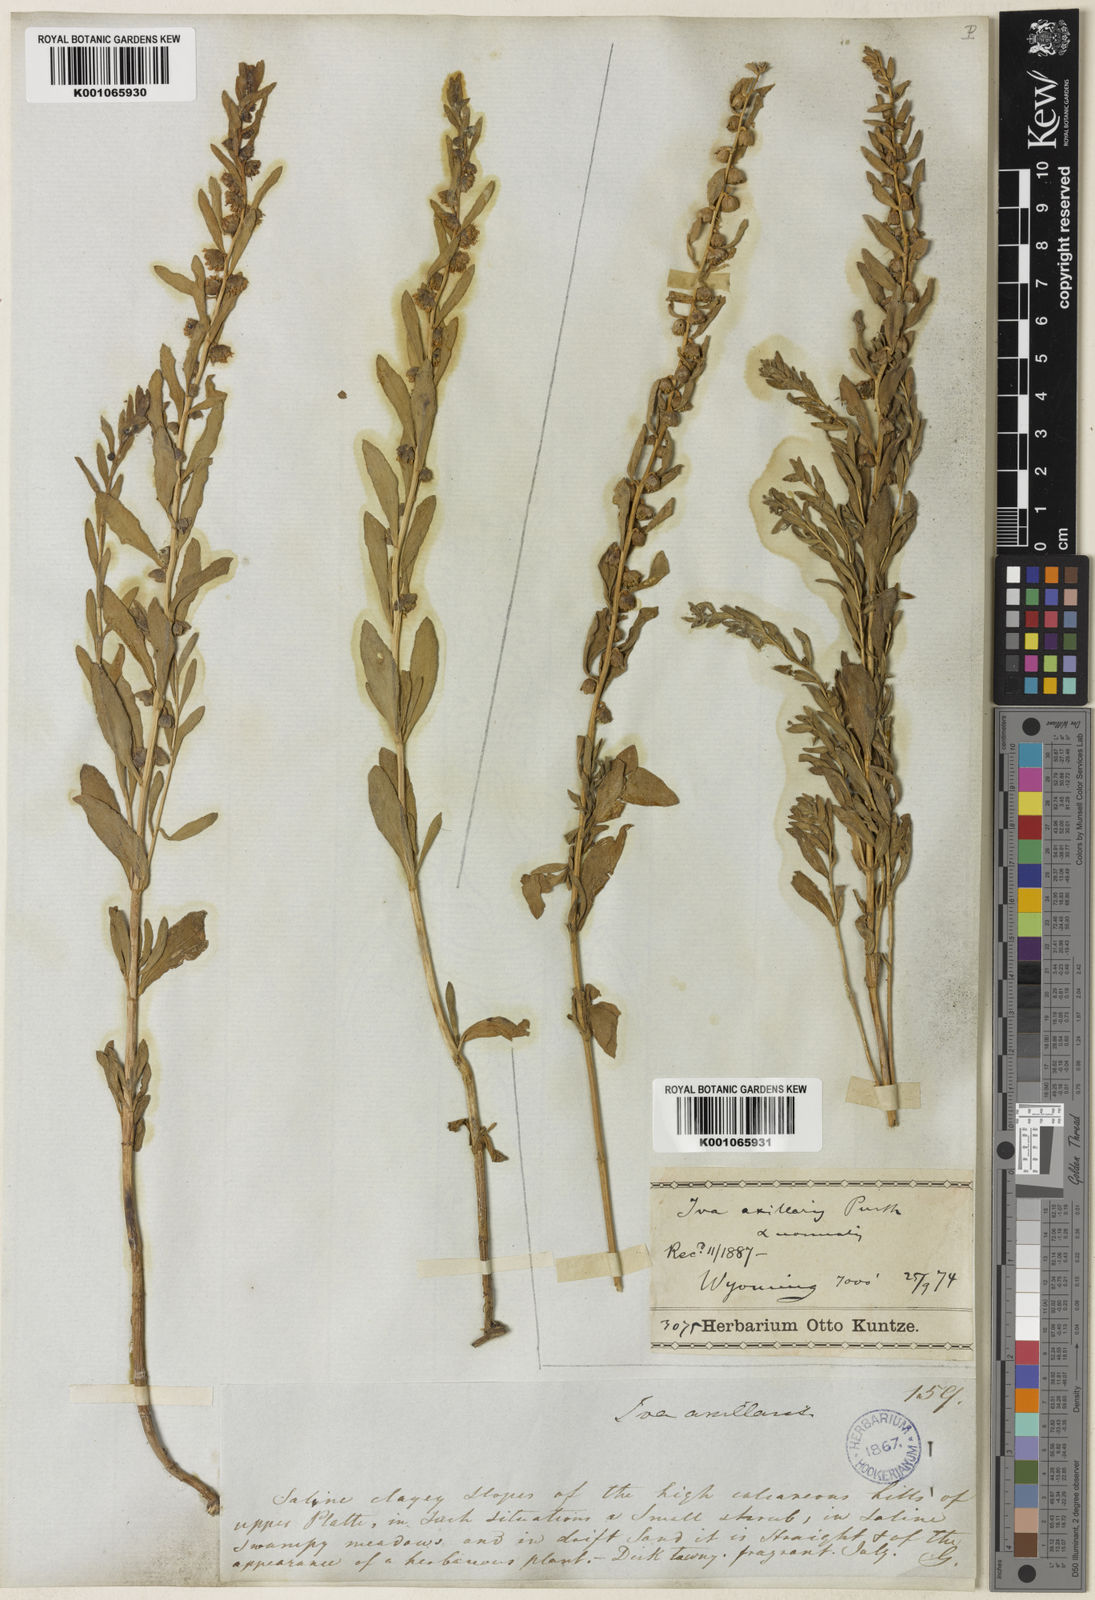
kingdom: Plantae
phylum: Tracheophyta
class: Magnoliopsida
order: Asterales
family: Asteraceae
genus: Iva
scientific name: Iva axillaris
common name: Poverty sumpweed
